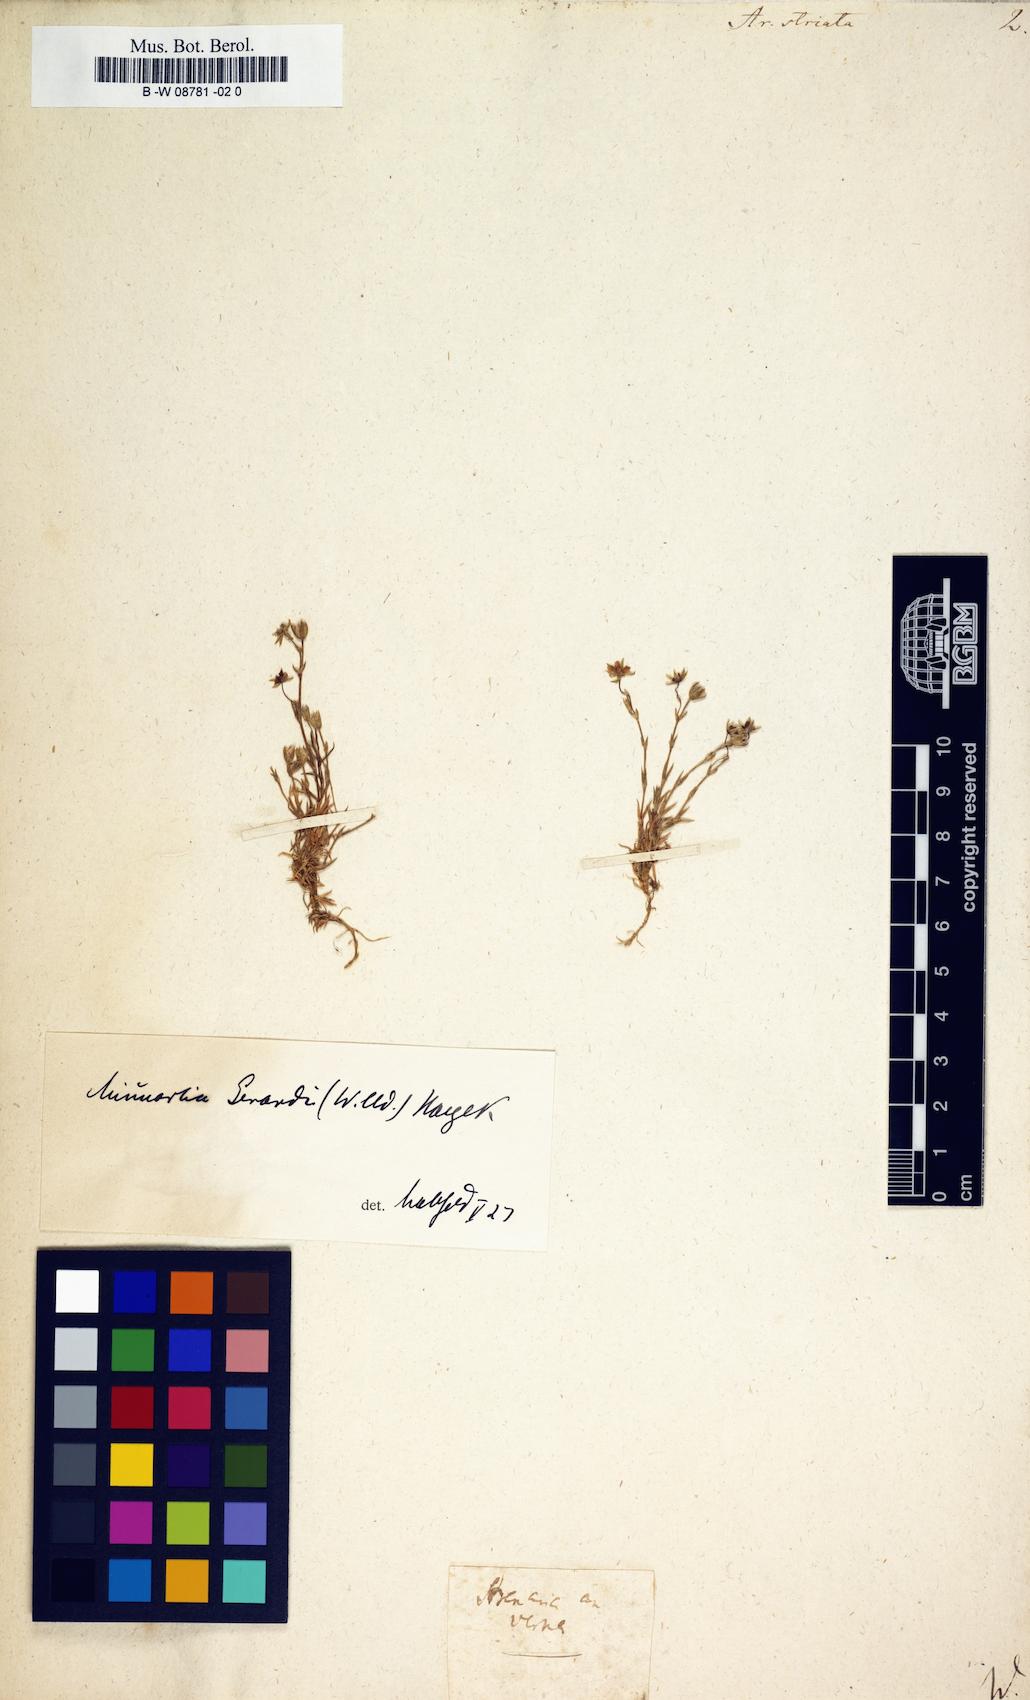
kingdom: Plantae
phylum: Tracheophyta
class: Magnoliopsida
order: Caryophyllales
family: Caryophyllaceae
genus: Cherleria
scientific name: Cherleria laricifolia
